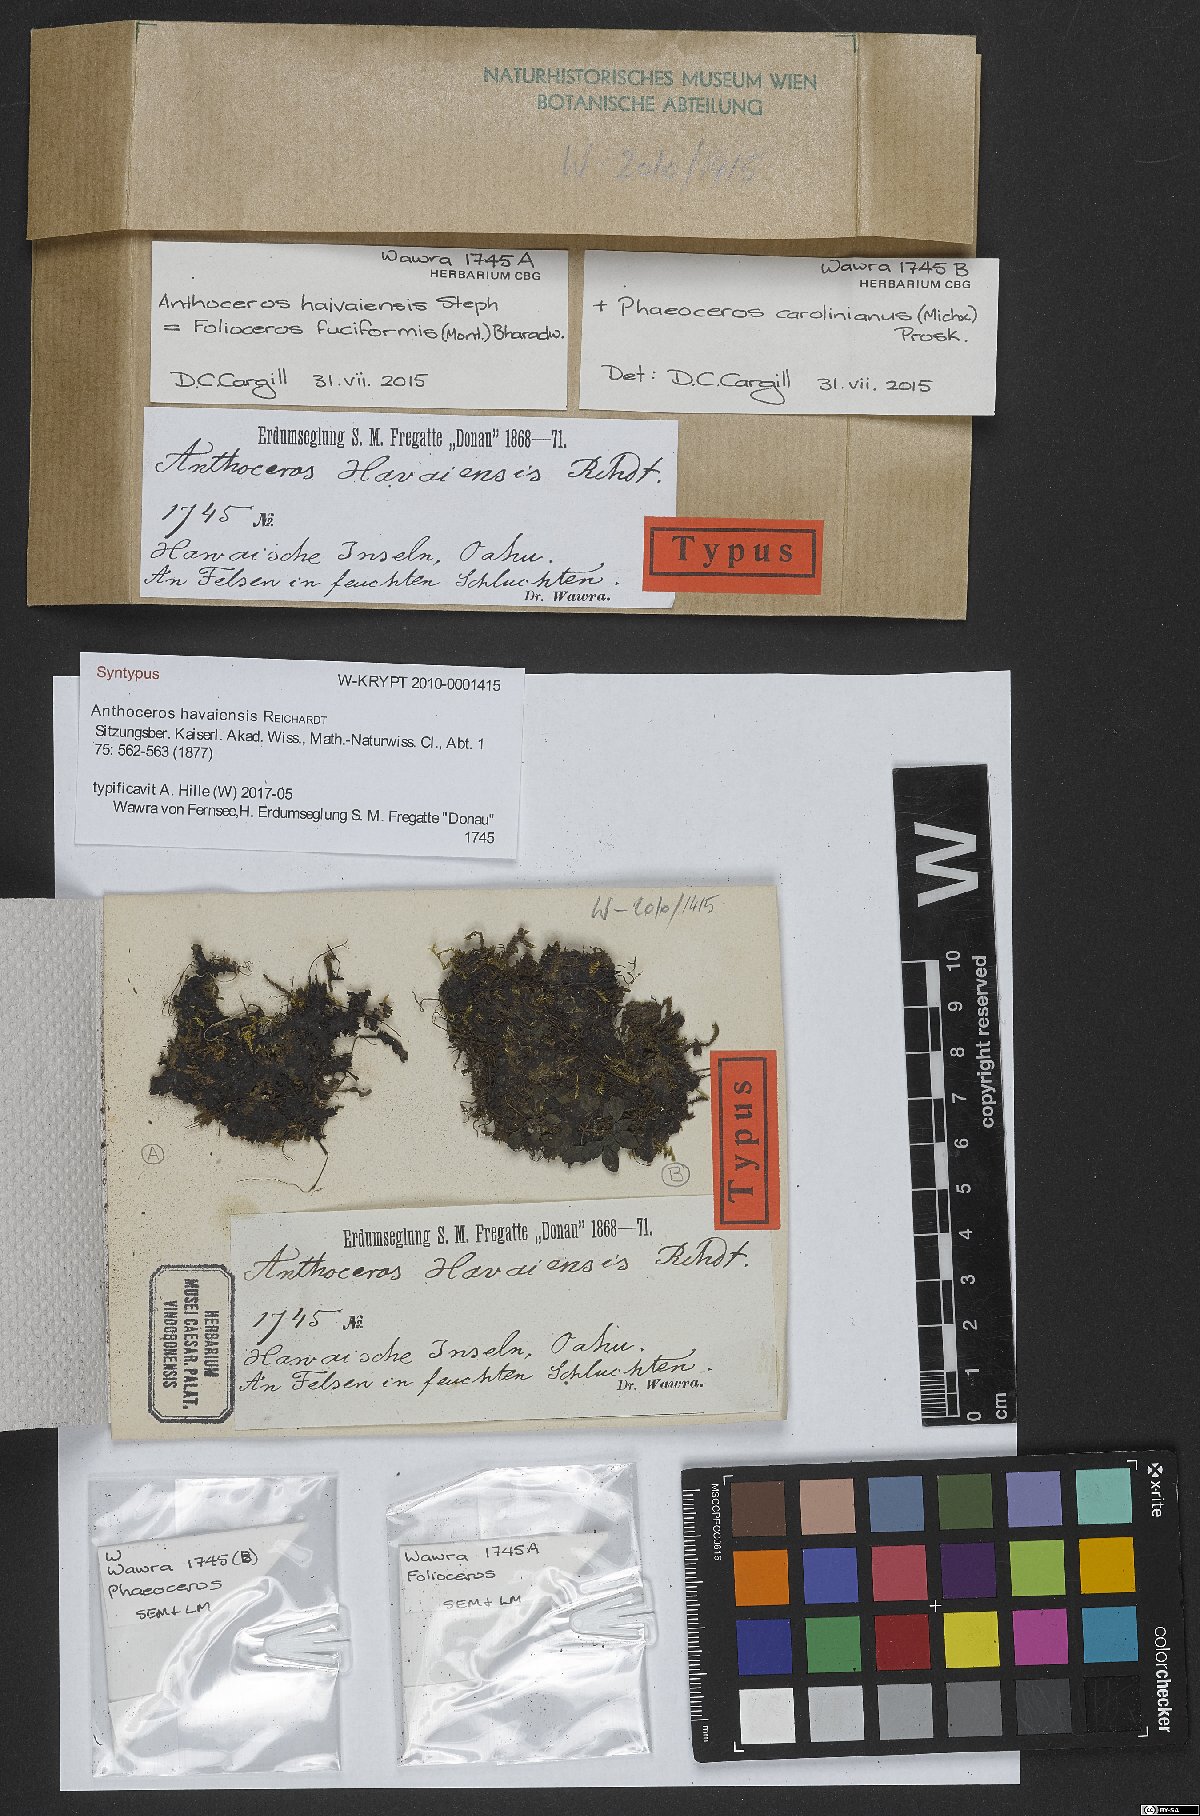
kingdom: Plantae
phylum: Anthocerotophyta
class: Anthocerotopsida
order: Notothyladales
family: Notothyladaceae
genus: Phaeoceros
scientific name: Phaeoceros carolinianus
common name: Carolina hornwort
